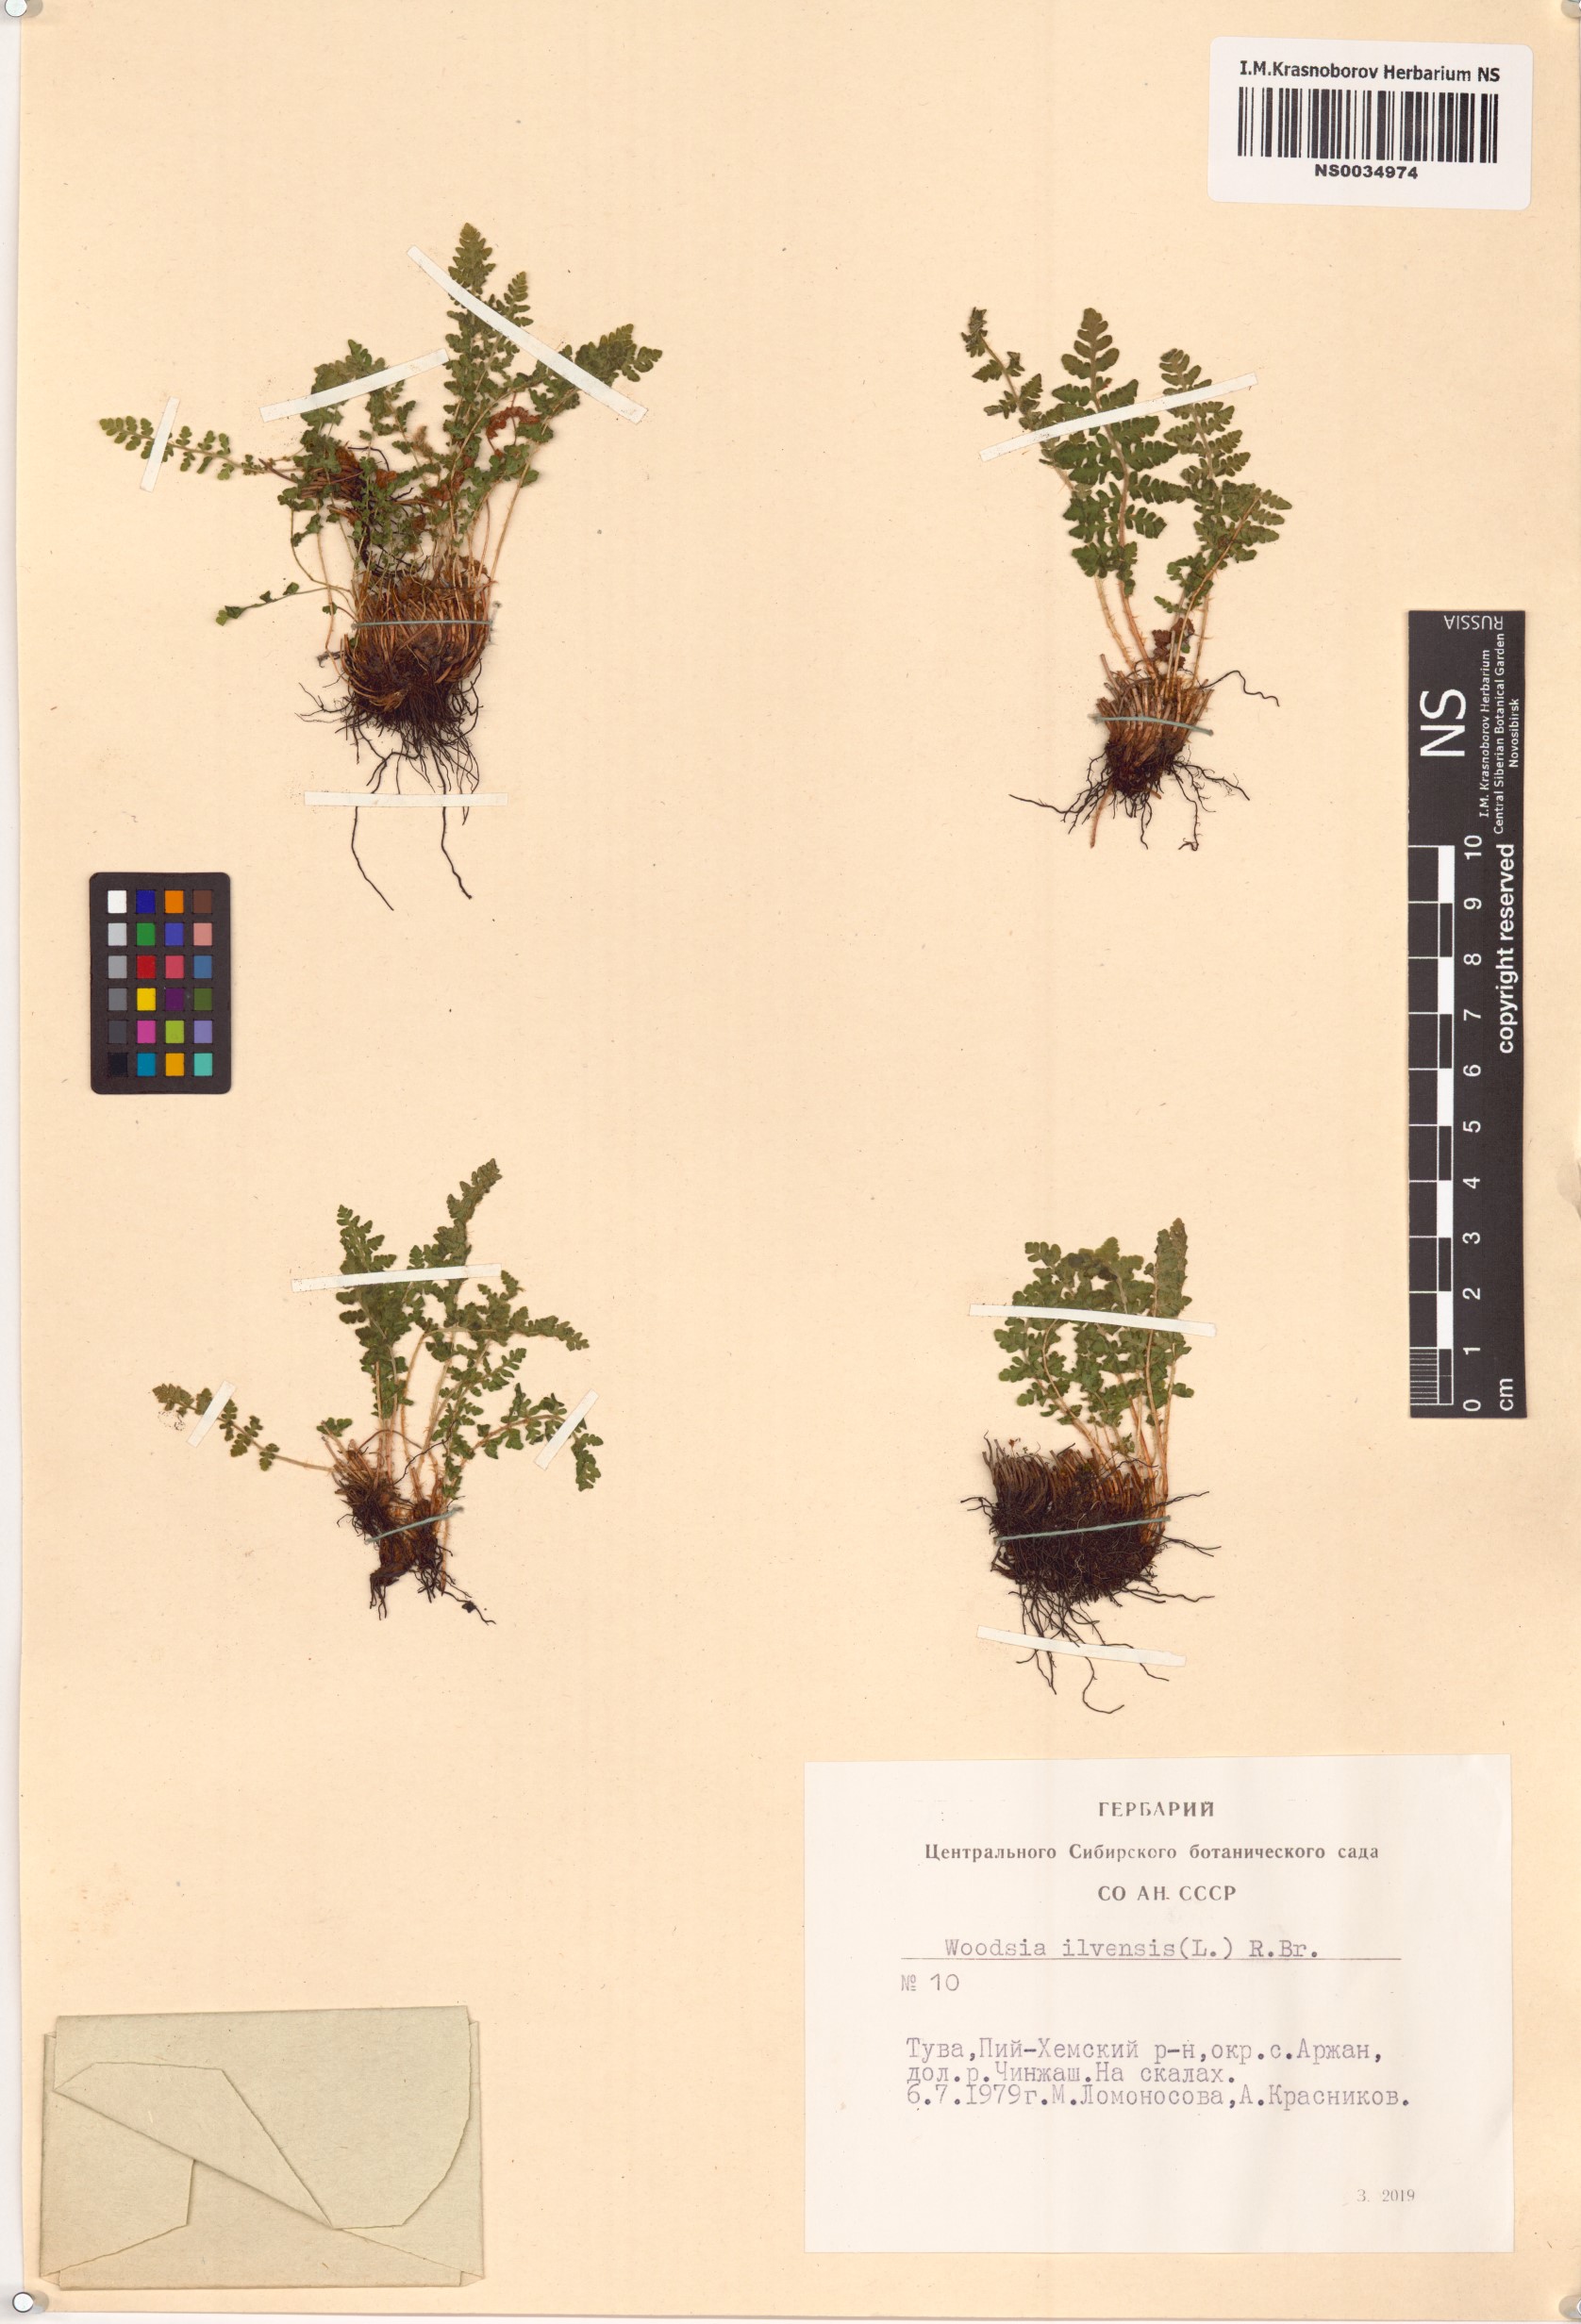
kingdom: Plantae
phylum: Tracheophyta
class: Polypodiopsida
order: Polypodiales
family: Woodsiaceae
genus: Woodsia
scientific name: Woodsia ilvensis
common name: Fragrant woodsia
